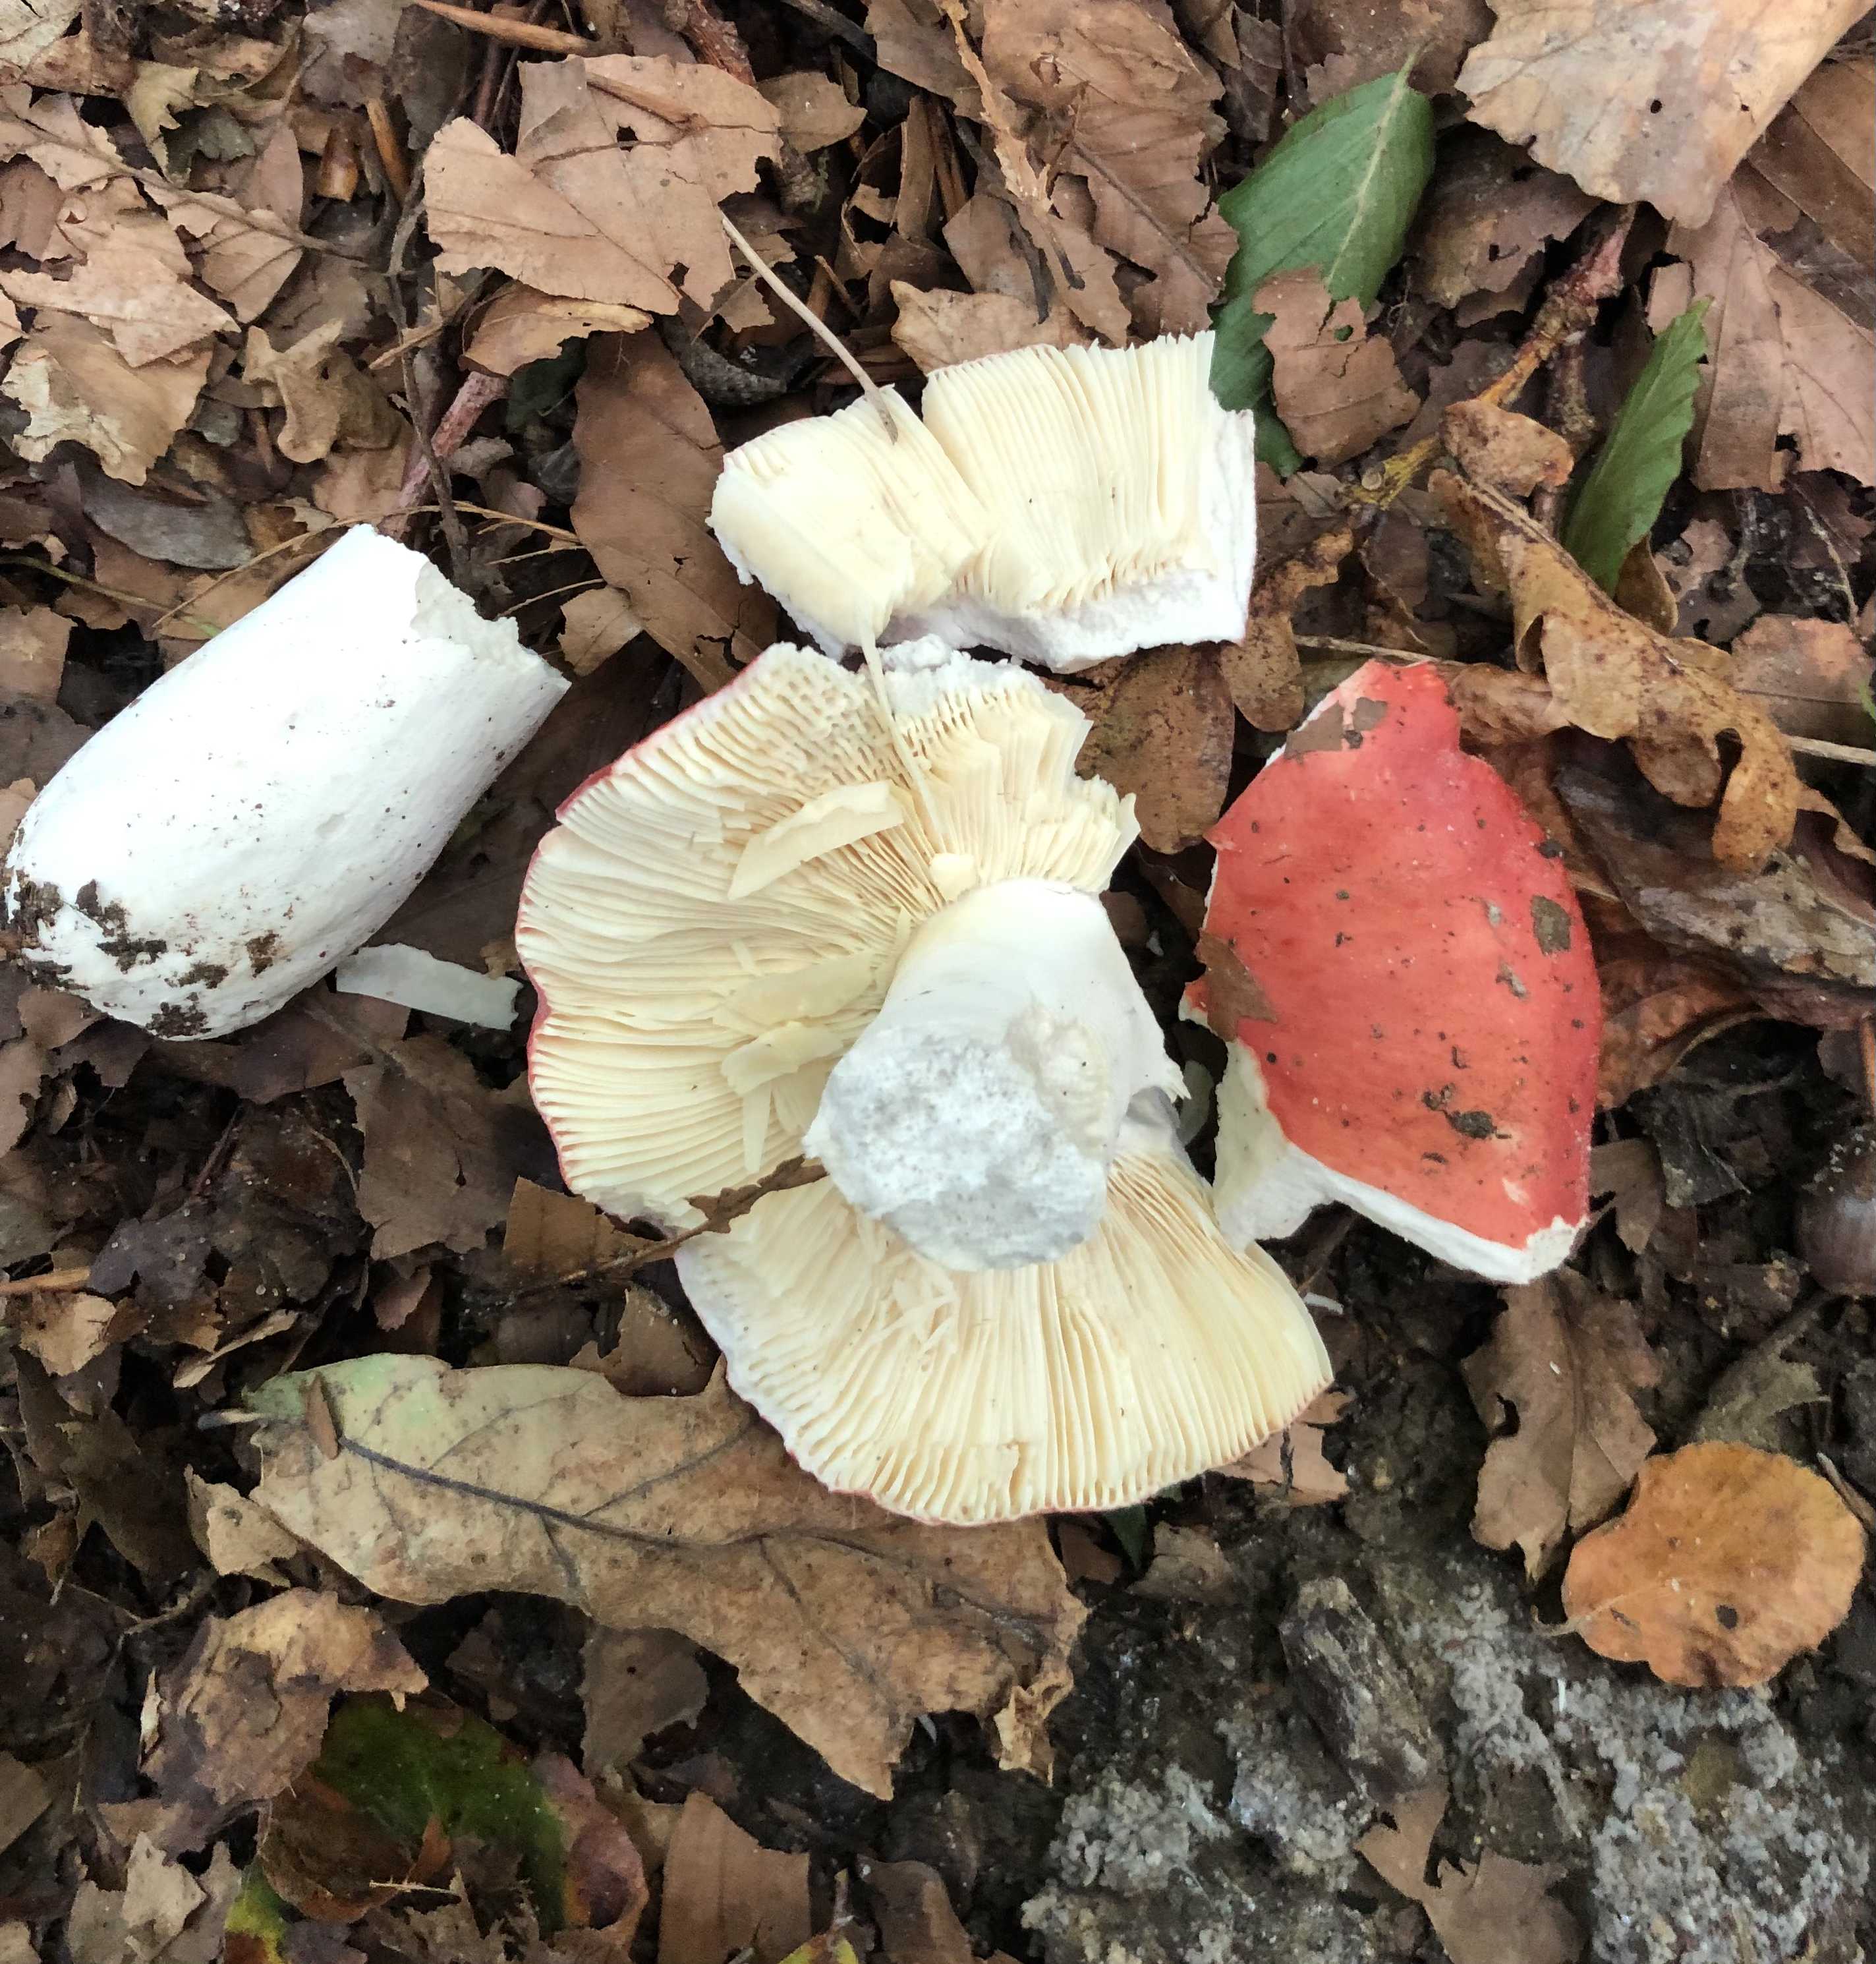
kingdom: Fungi
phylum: Basidiomycota
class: Agaricomycetes
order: Russulales
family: Russulaceae
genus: Russula
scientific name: Russula pseudointegra
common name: cinnoberrød skørhat
